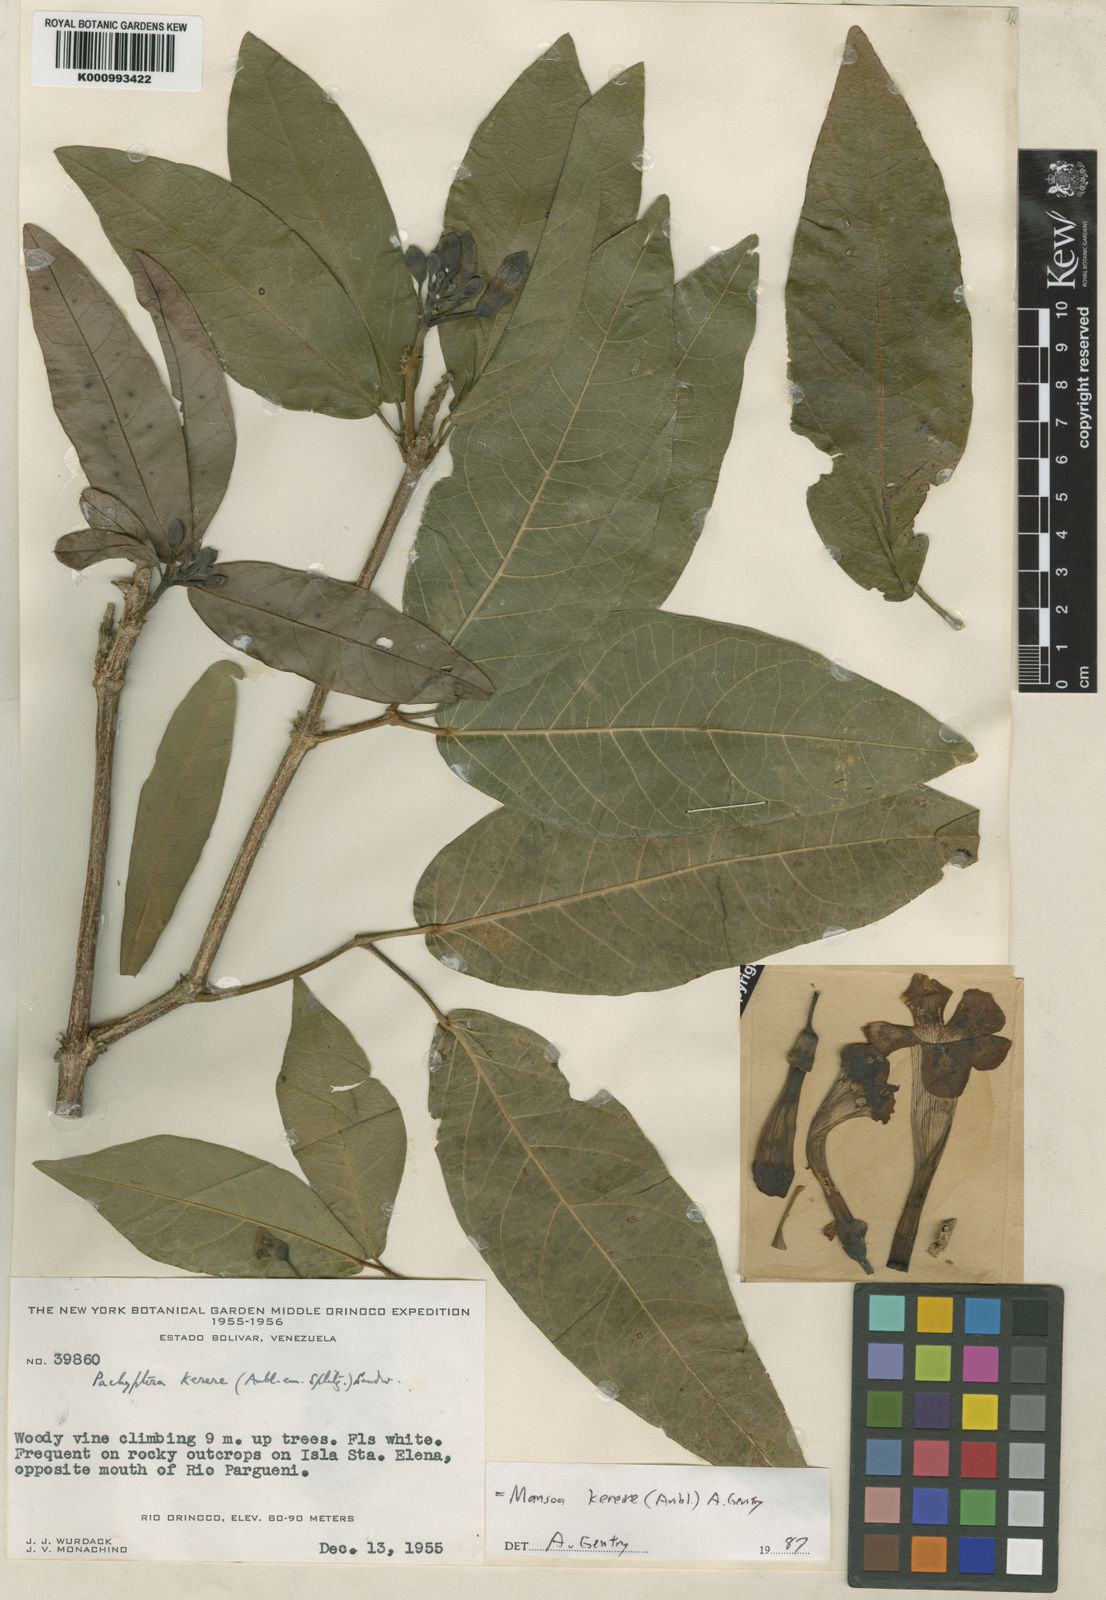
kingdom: Plantae
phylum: Tracheophyta
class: Magnoliopsida
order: Lamiales
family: Bignoniaceae
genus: Pachyptera
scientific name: Pachyptera kerere
